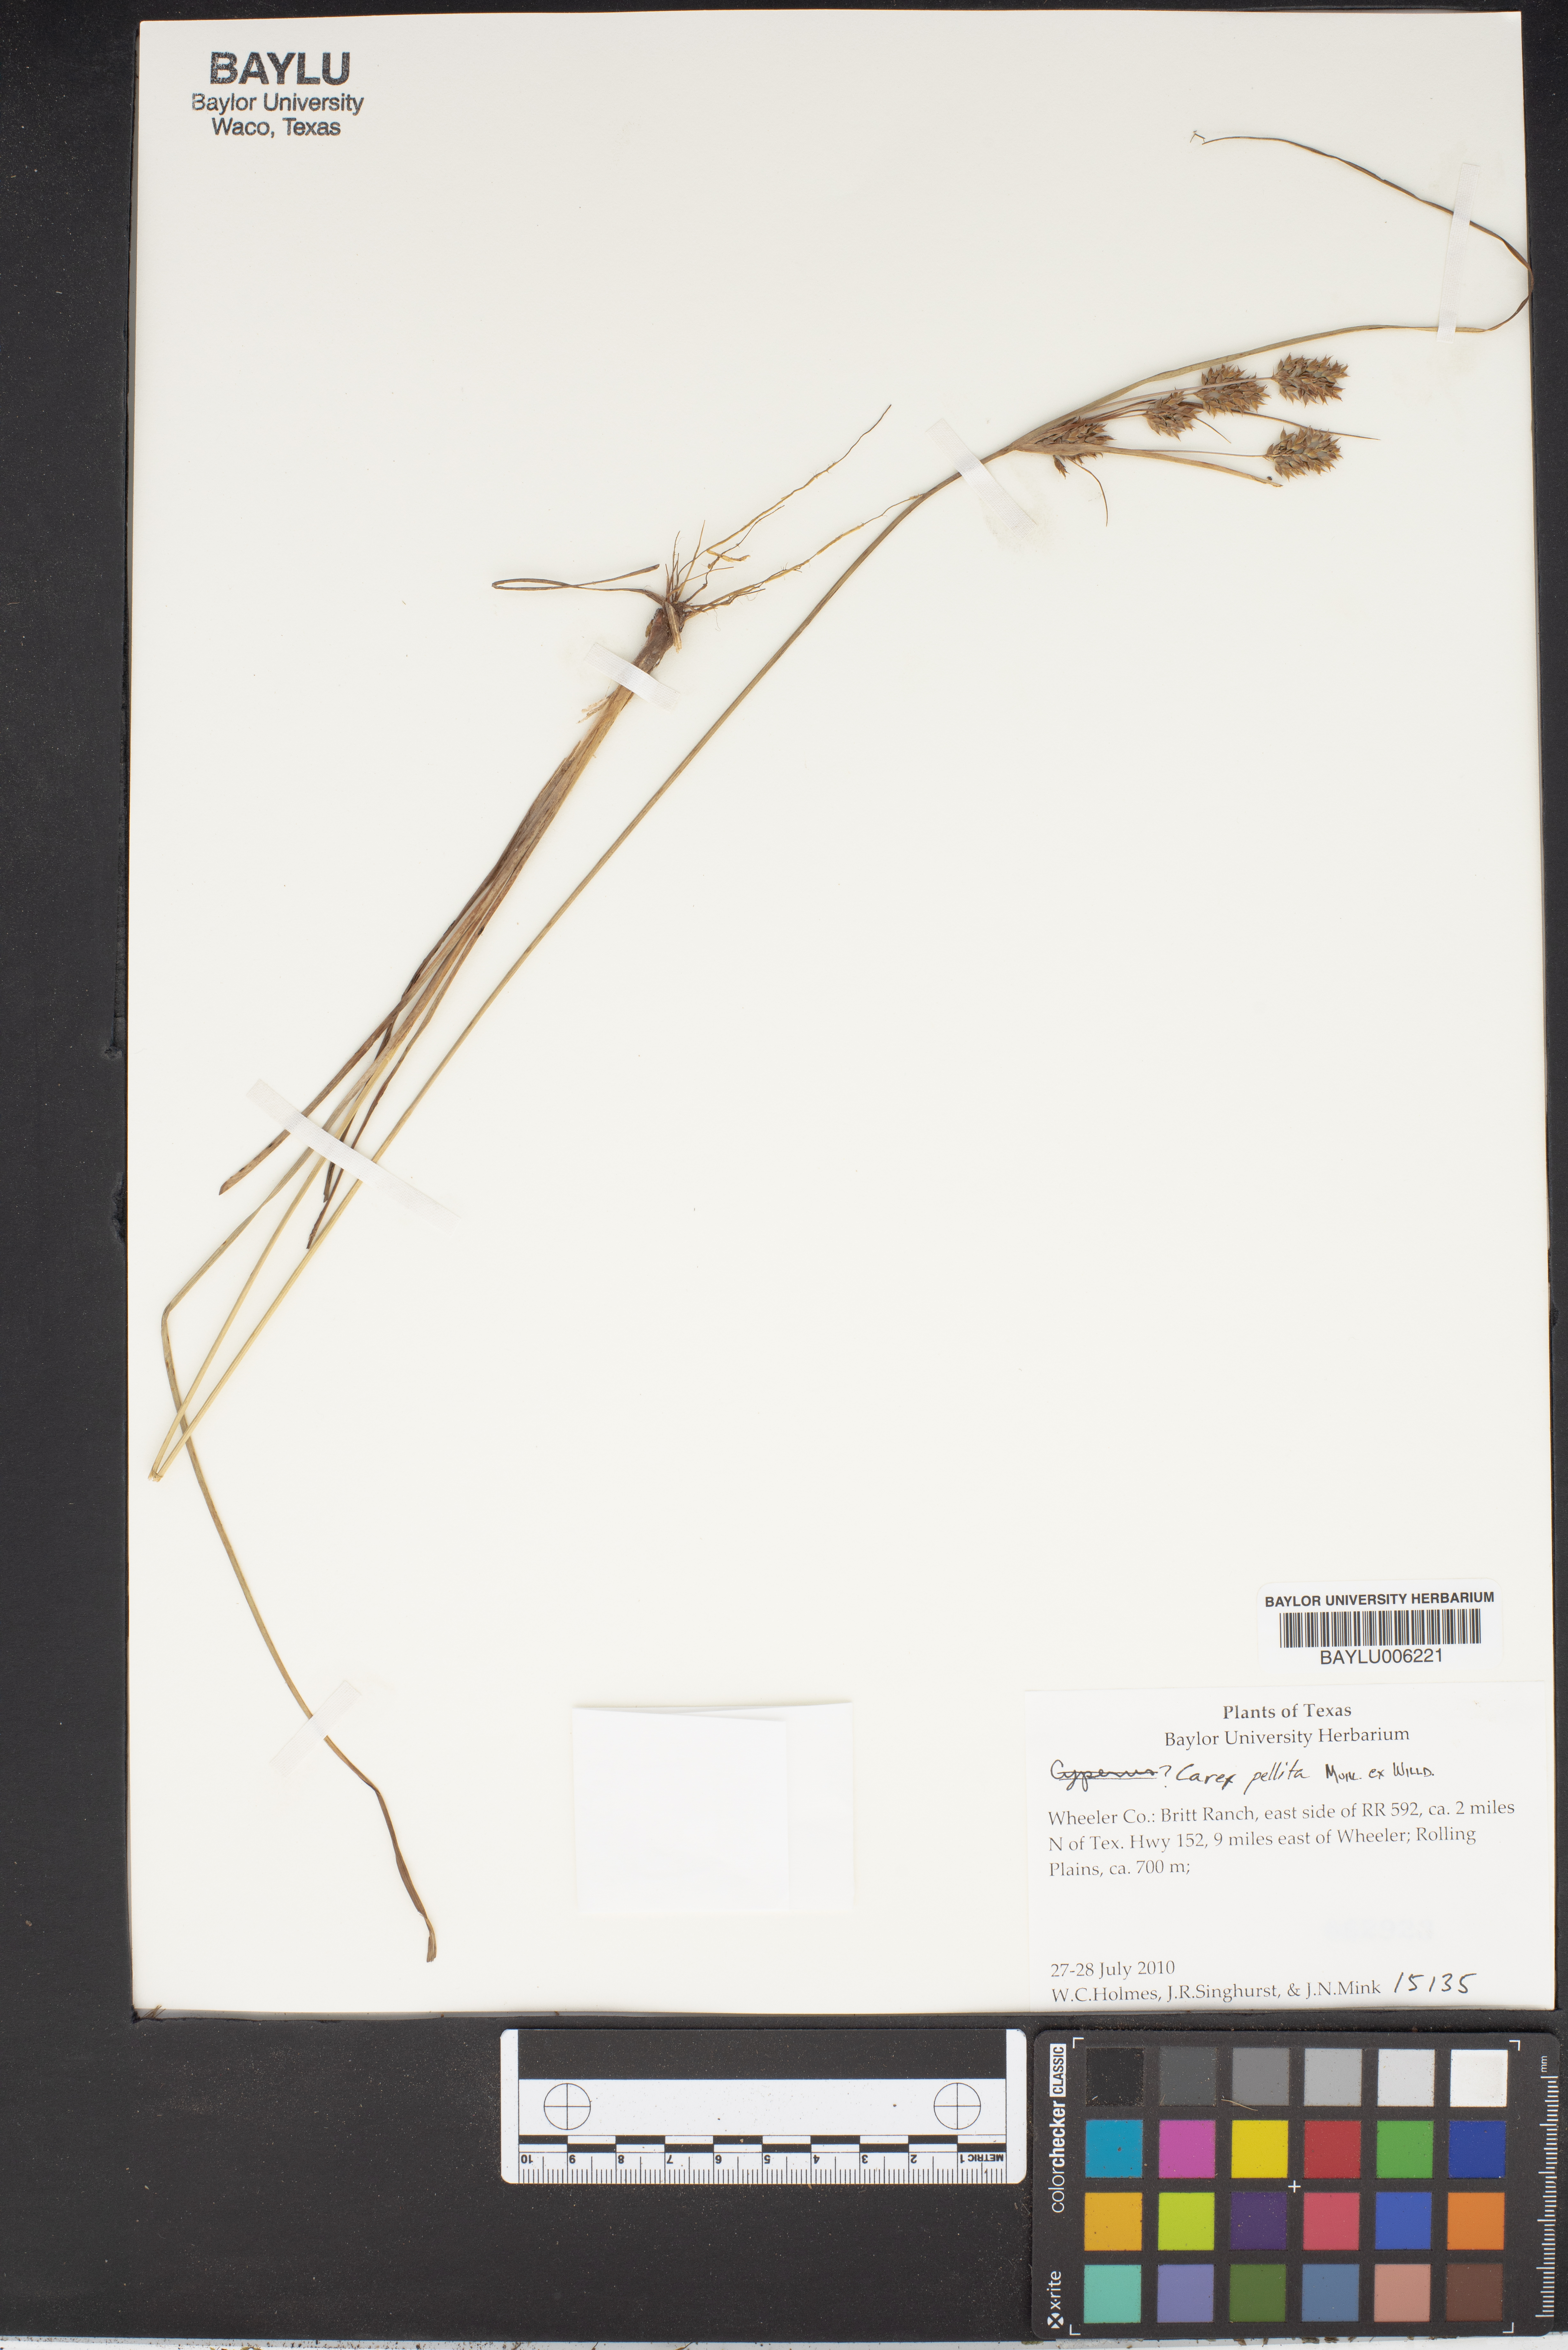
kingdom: Plantae
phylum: Tracheophyta
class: Liliopsida
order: Poales
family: Cyperaceae
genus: Carex
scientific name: Carex pellita
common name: Woolly sedge
